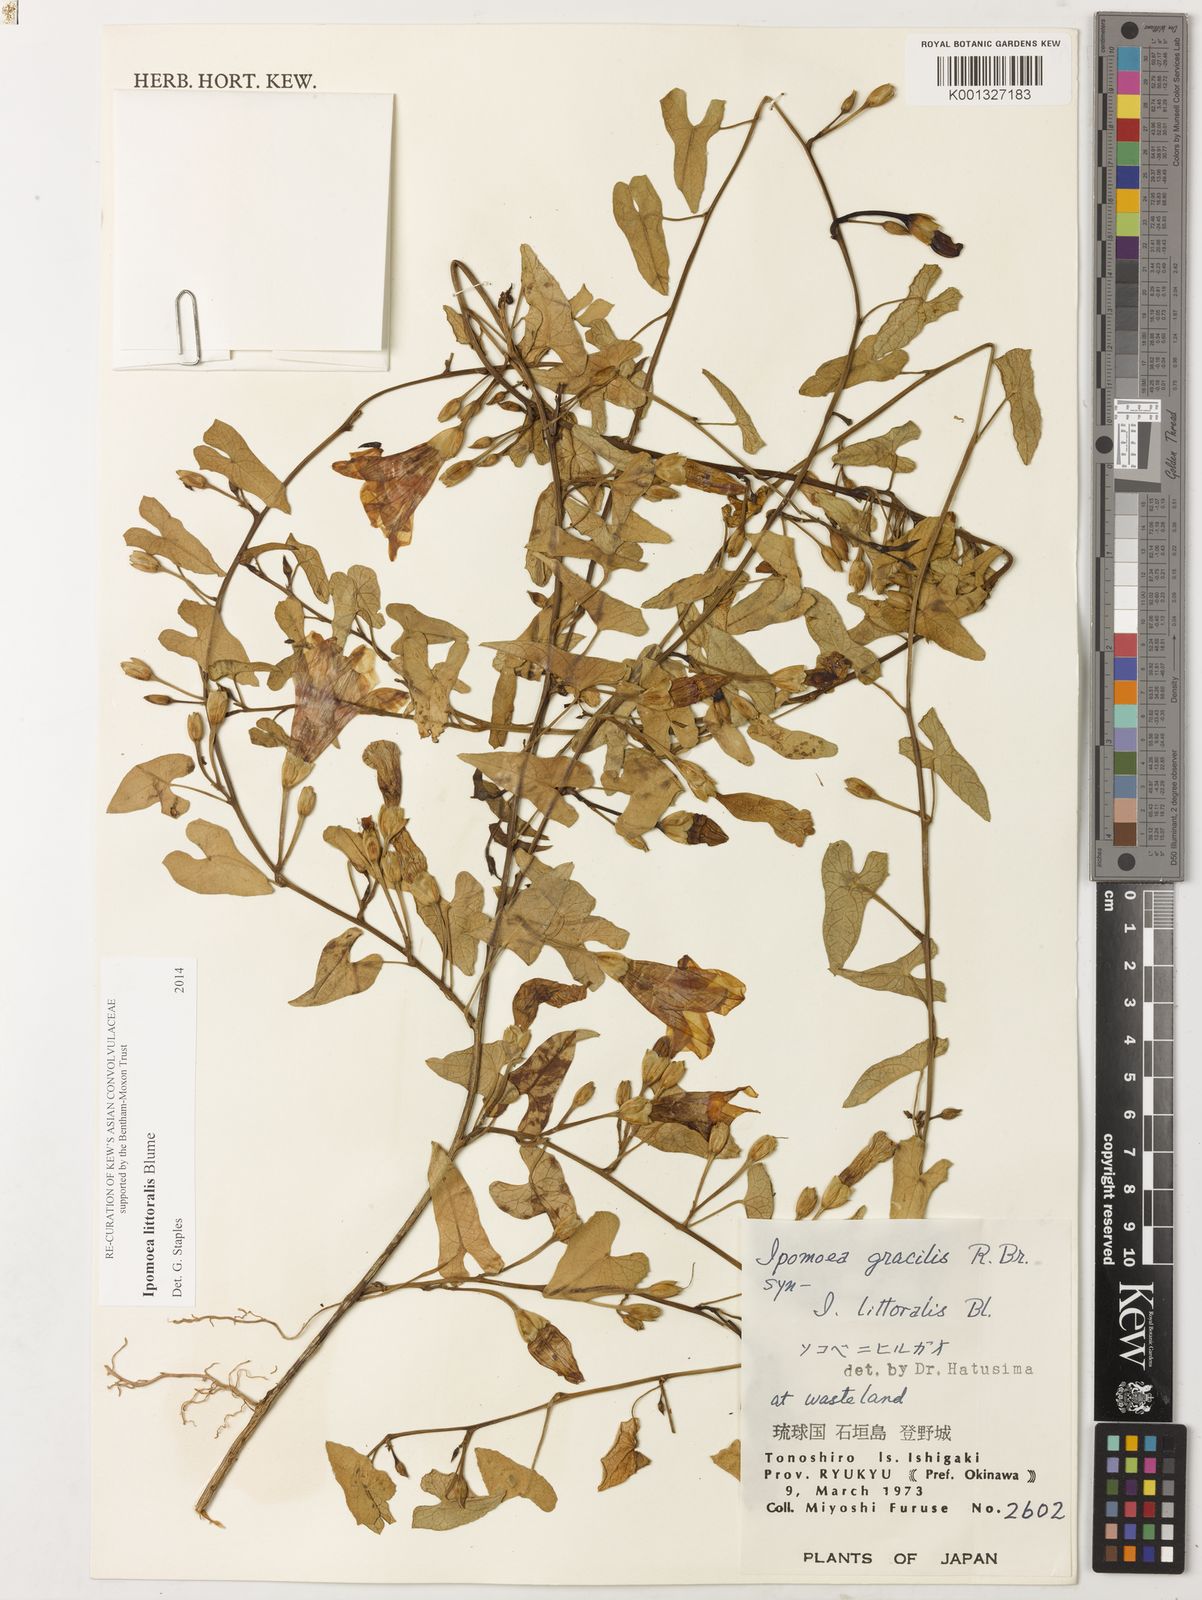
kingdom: Plantae
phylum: Tracheophyta
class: Magnoliopsida
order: Solanales
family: Convolvulaceae
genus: Ipomoea
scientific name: Ipomoea littoralis
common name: Coastal morning glory
